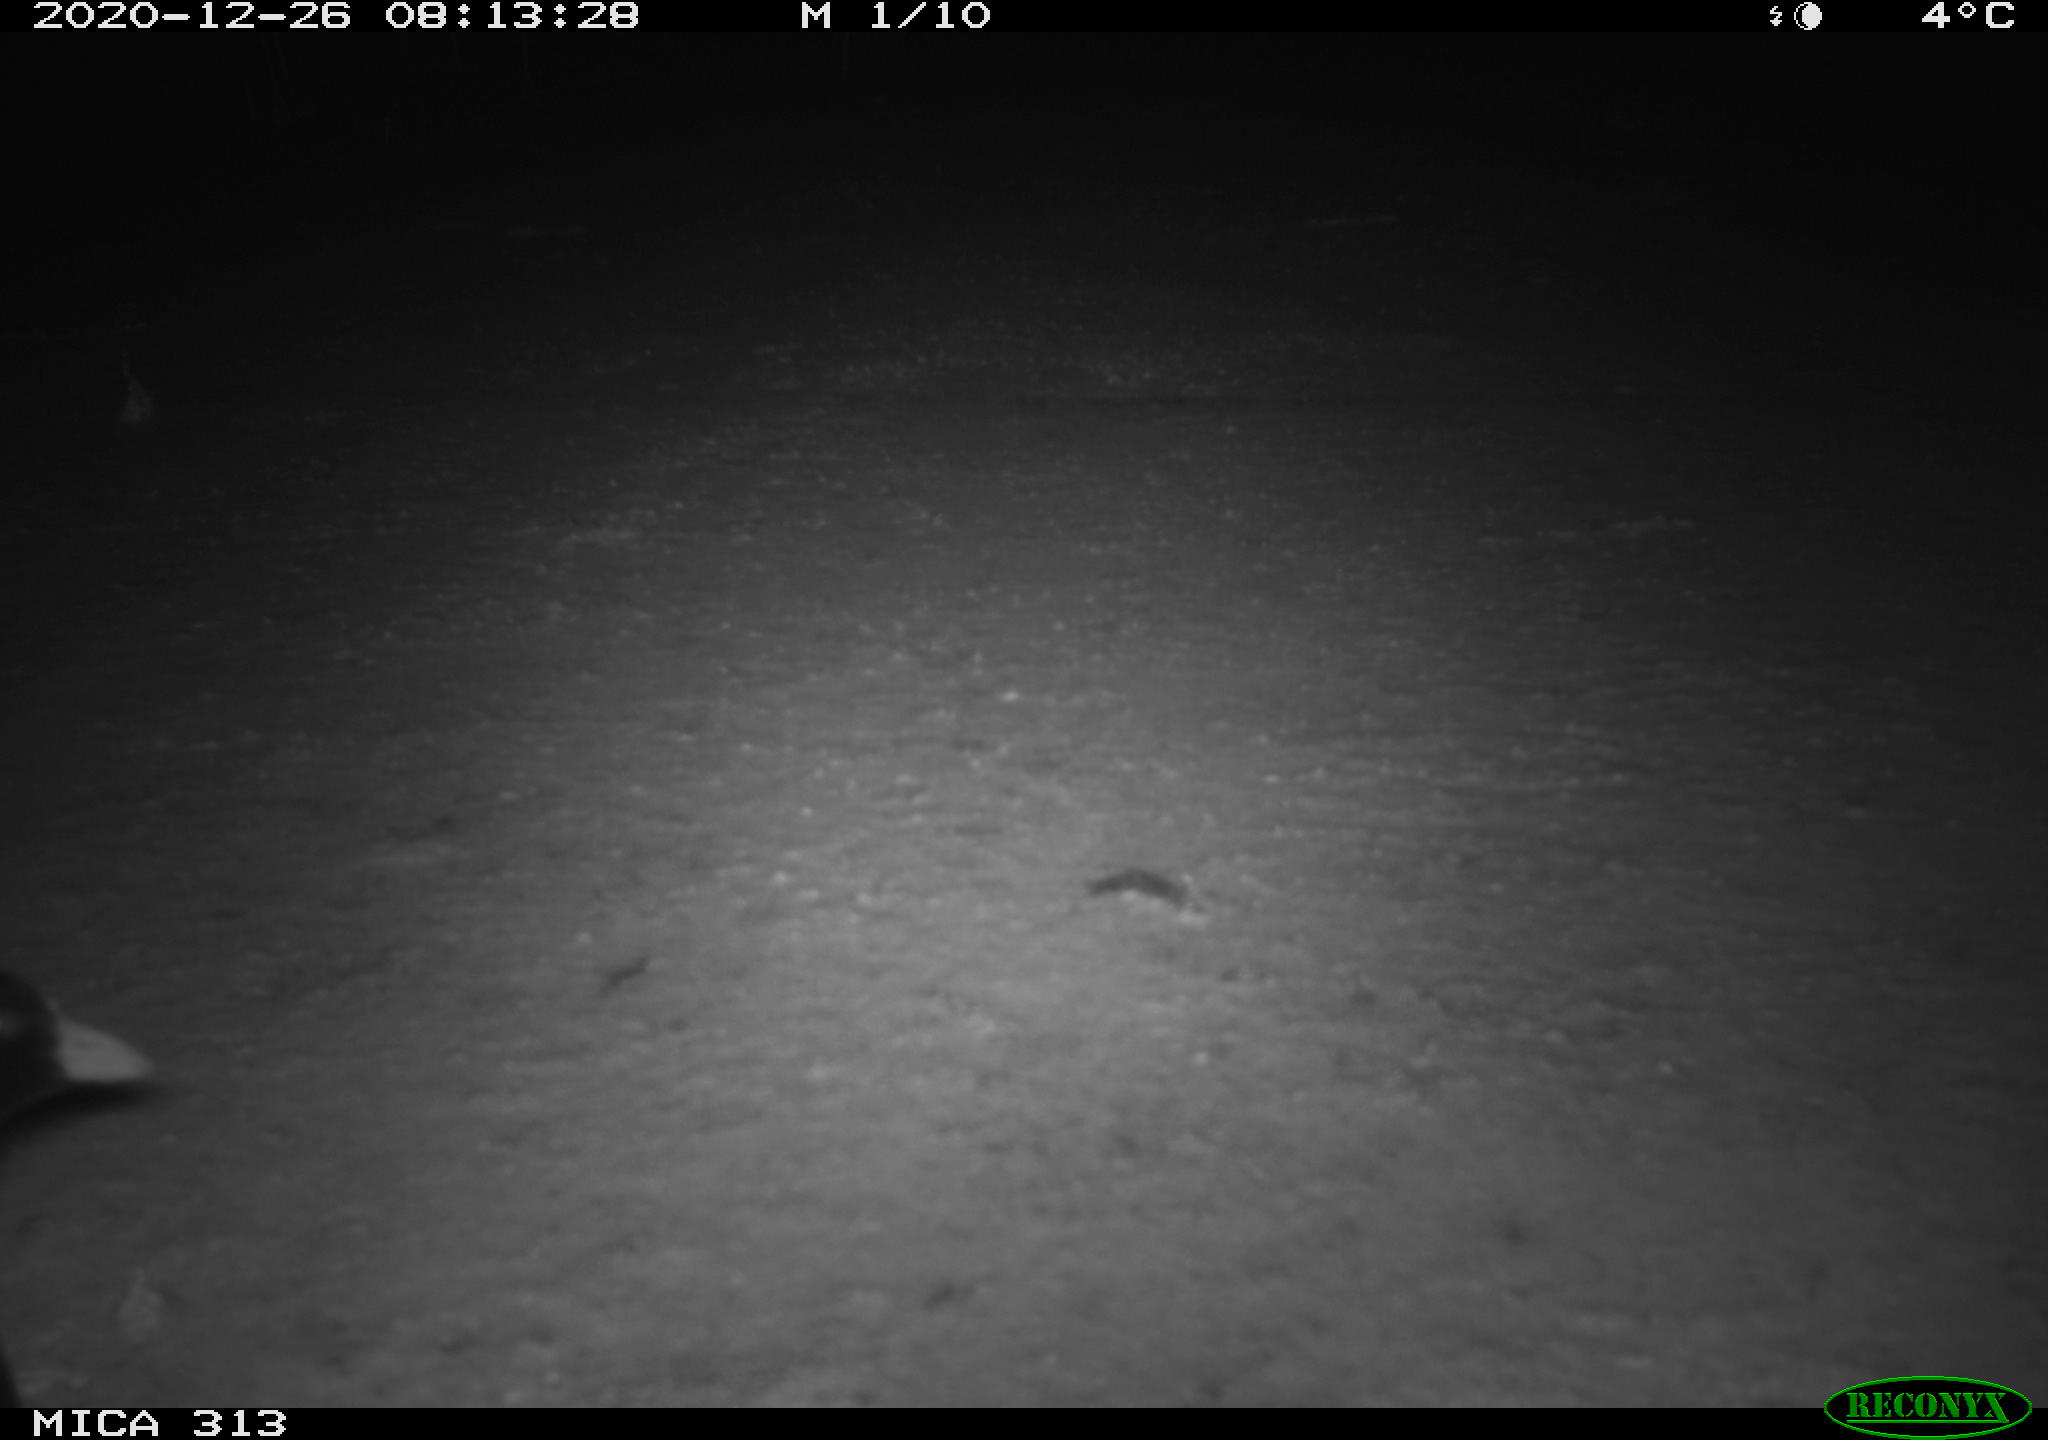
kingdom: Animalia
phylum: Chordata
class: Aves
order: Gruiformes
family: Rallidae
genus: Gallinula
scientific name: Gallinula chloropus
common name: Common moorhen
